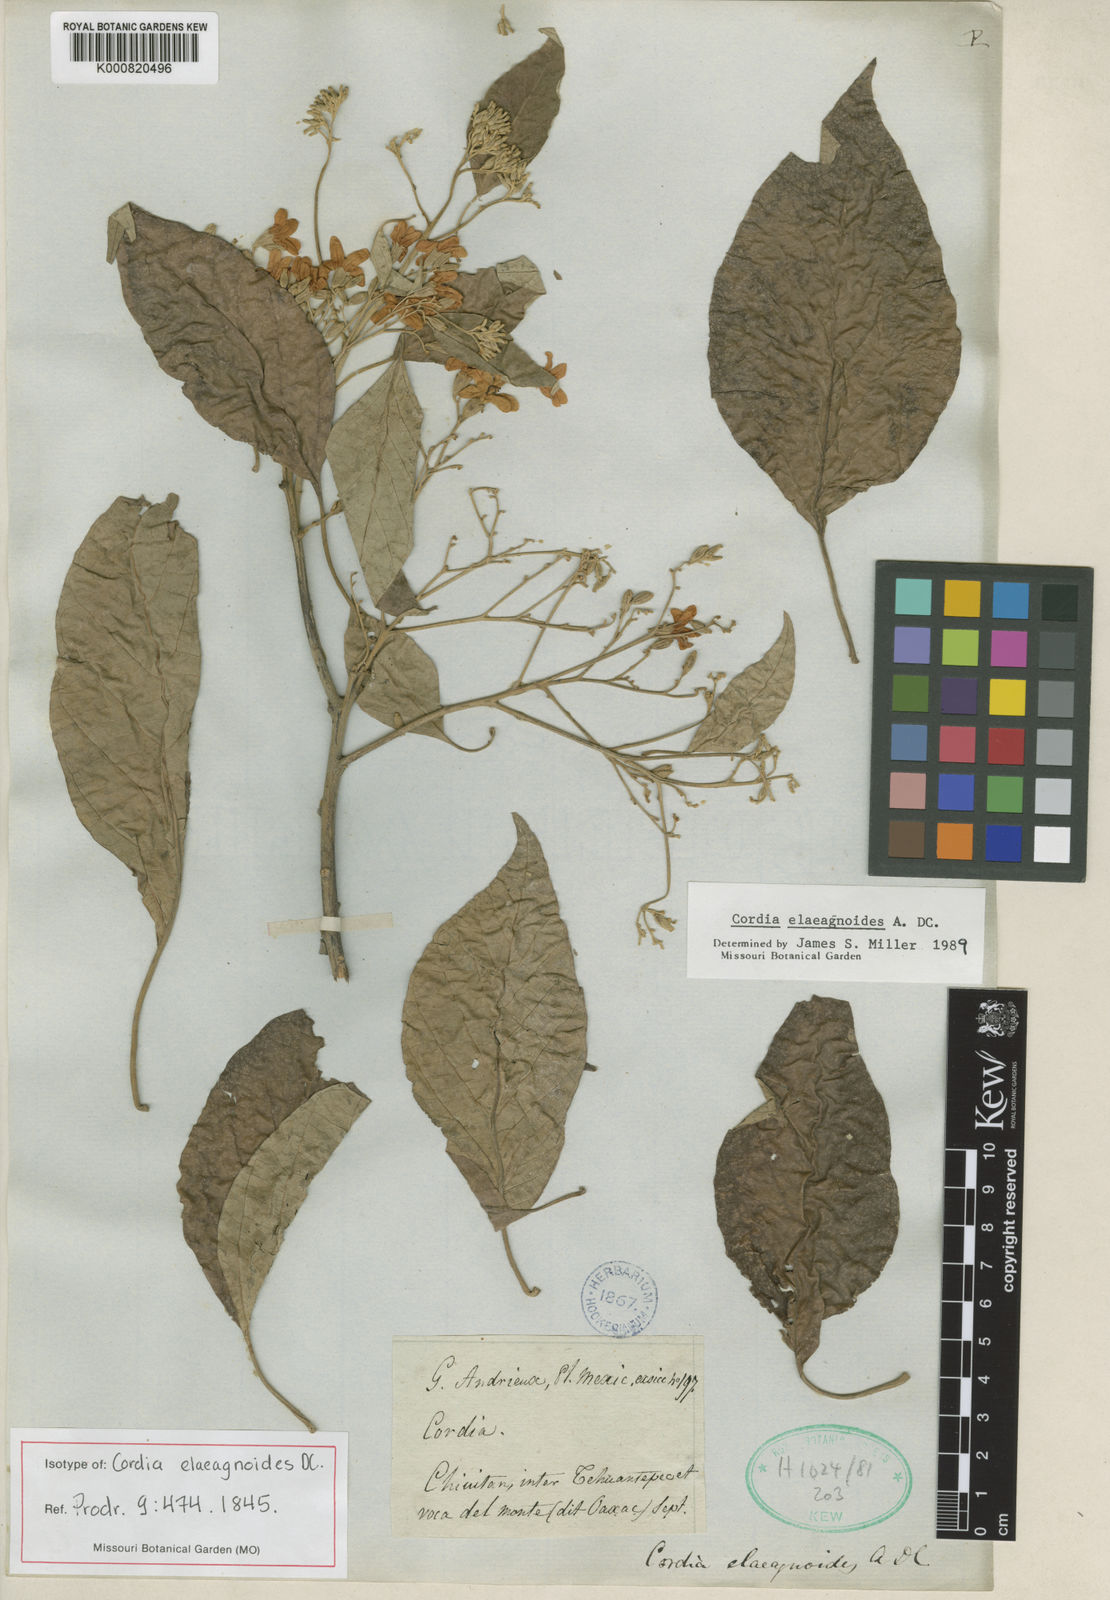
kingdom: Plantae
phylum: Tracheophyta
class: Magnoliopsida
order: Boraginales
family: Cordiaceae
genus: Cordia
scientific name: Cordia elaeagnoides
